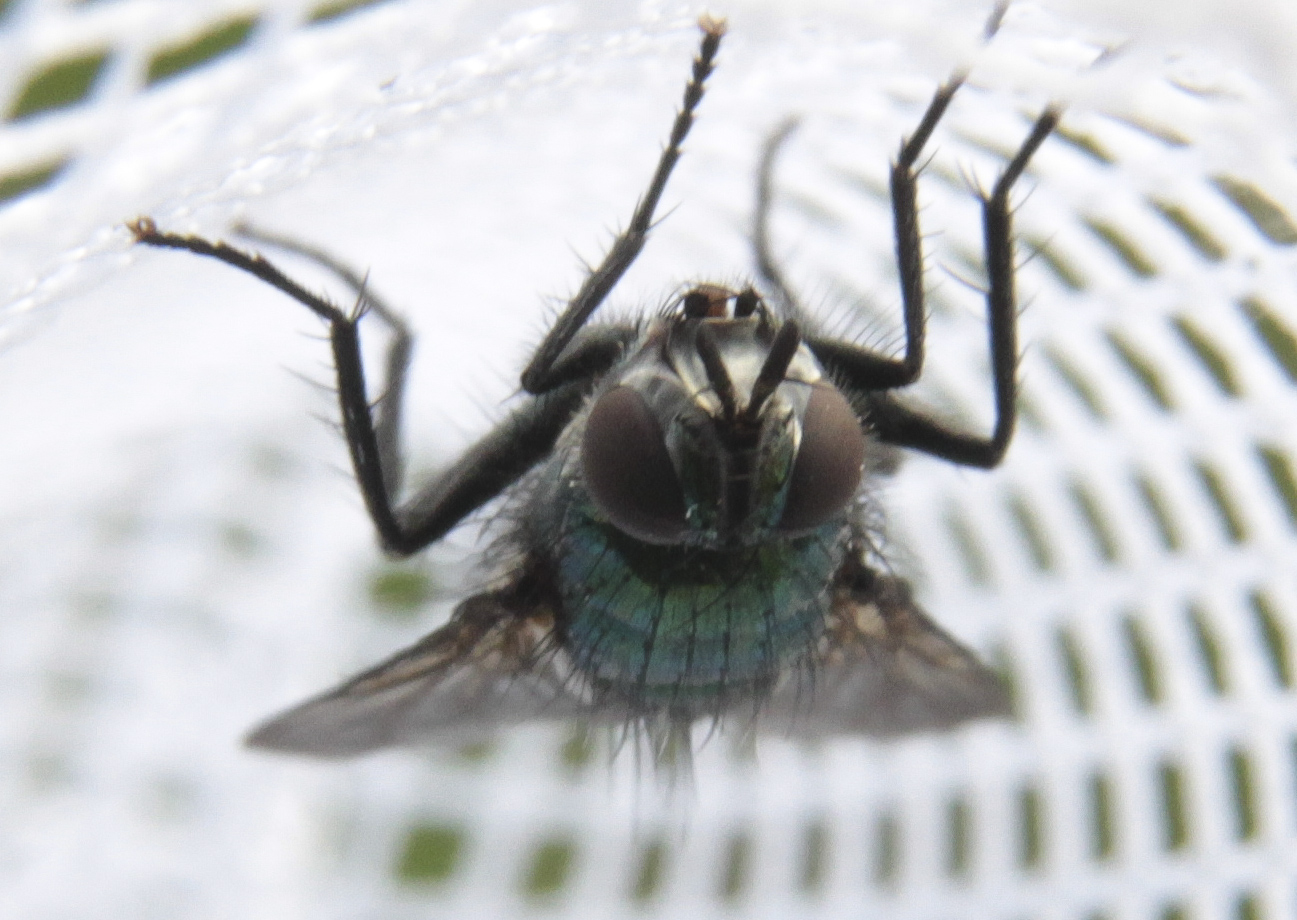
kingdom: Animalia
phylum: Arthropoda
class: Insecta
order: Diptera
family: Tachinidae
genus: Gymnocheta
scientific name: Gymnocheta viridis
